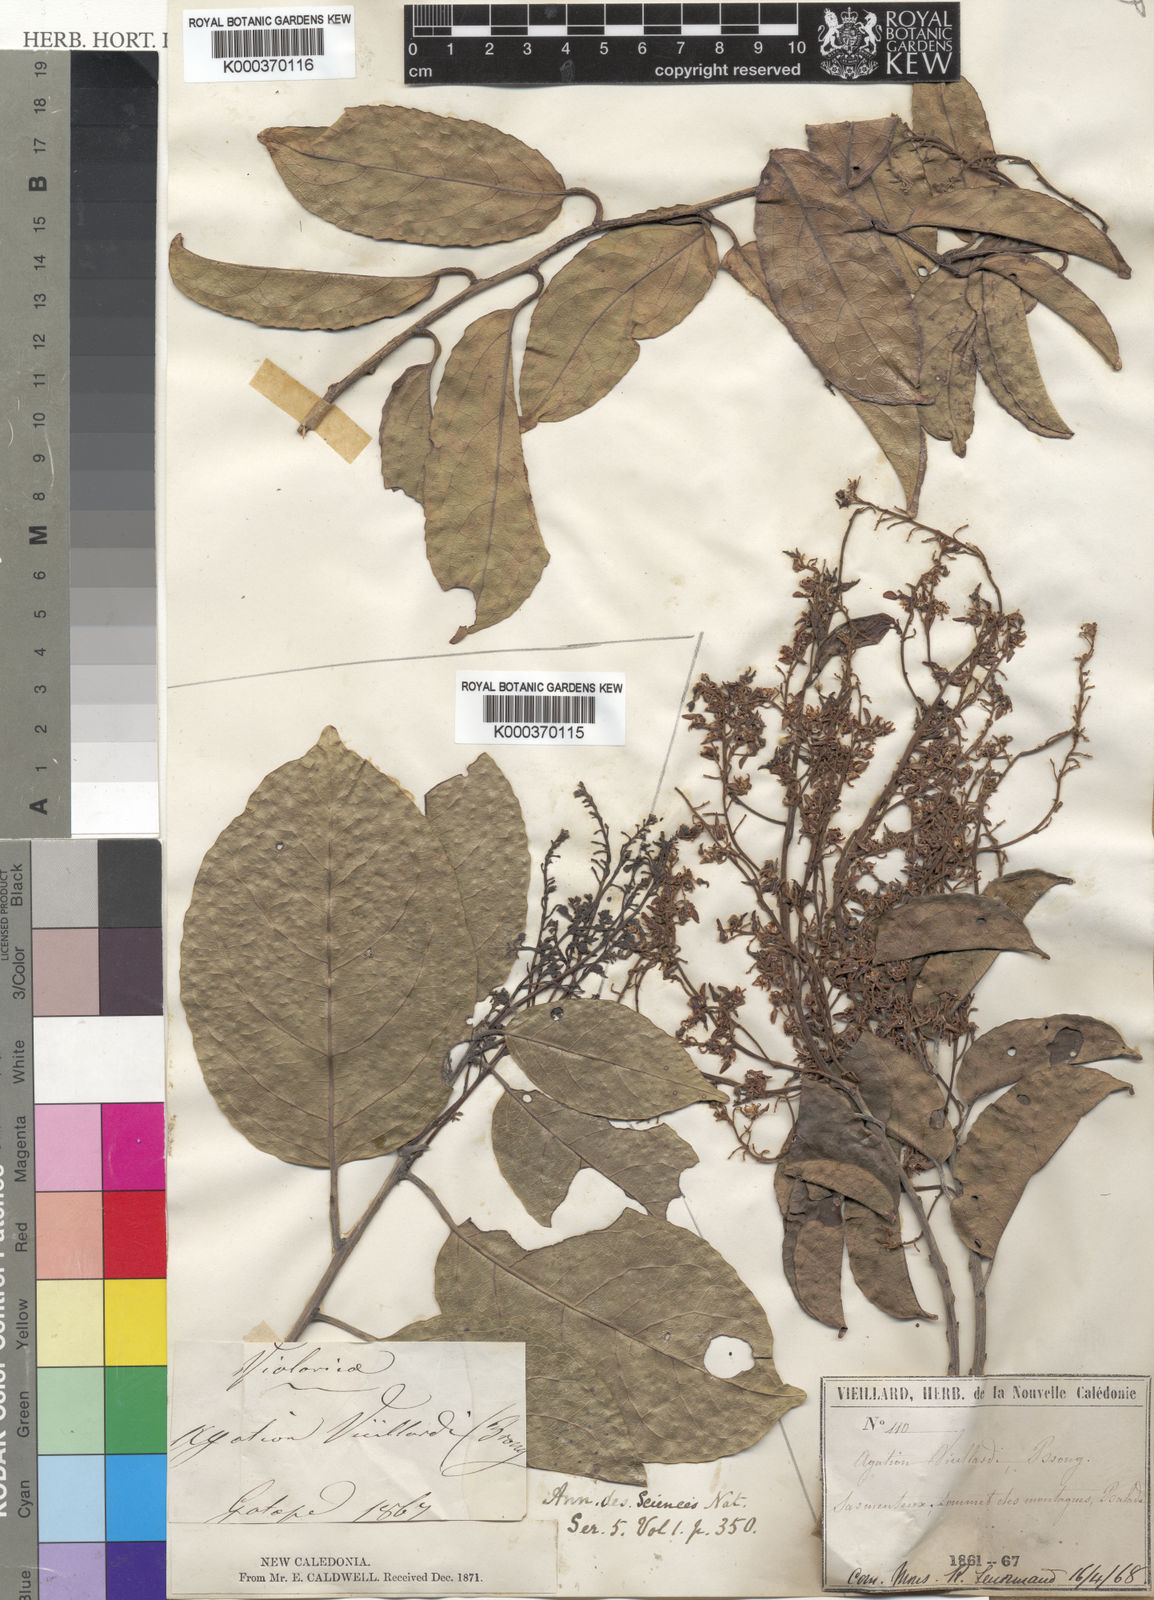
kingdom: Plantae
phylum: Tracheophyta
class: Magnoliopsida
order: Malpighiales
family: Violaceae
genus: Agatea
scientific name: Agatea
